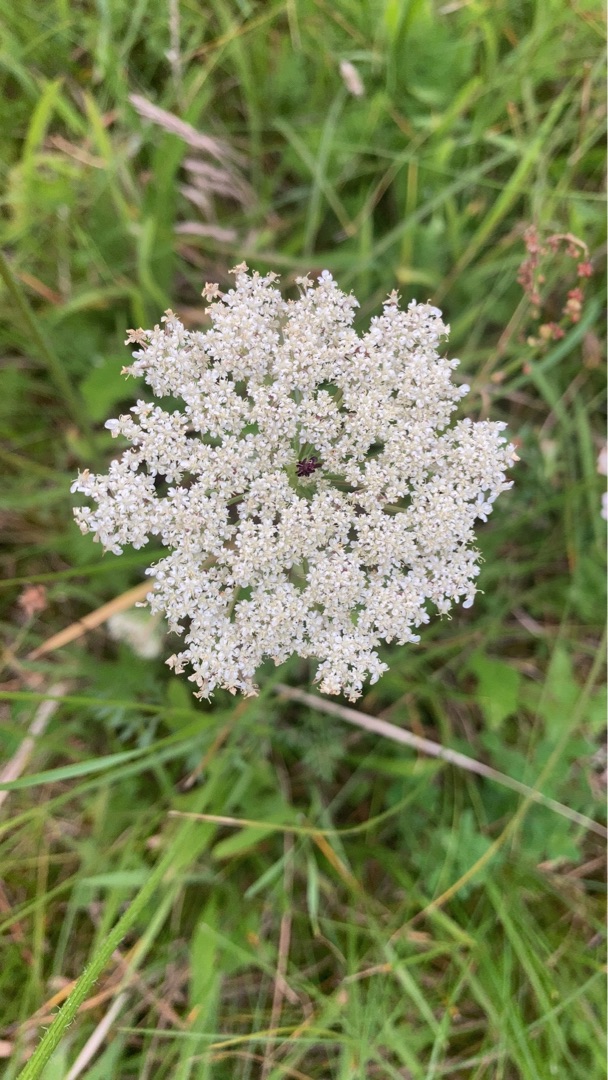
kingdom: Plantae
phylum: Tracheophyta
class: Magnoliopsida
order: Apiales
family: Apiaceae
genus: Daucus
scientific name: Daucus carota
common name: Gulerod
